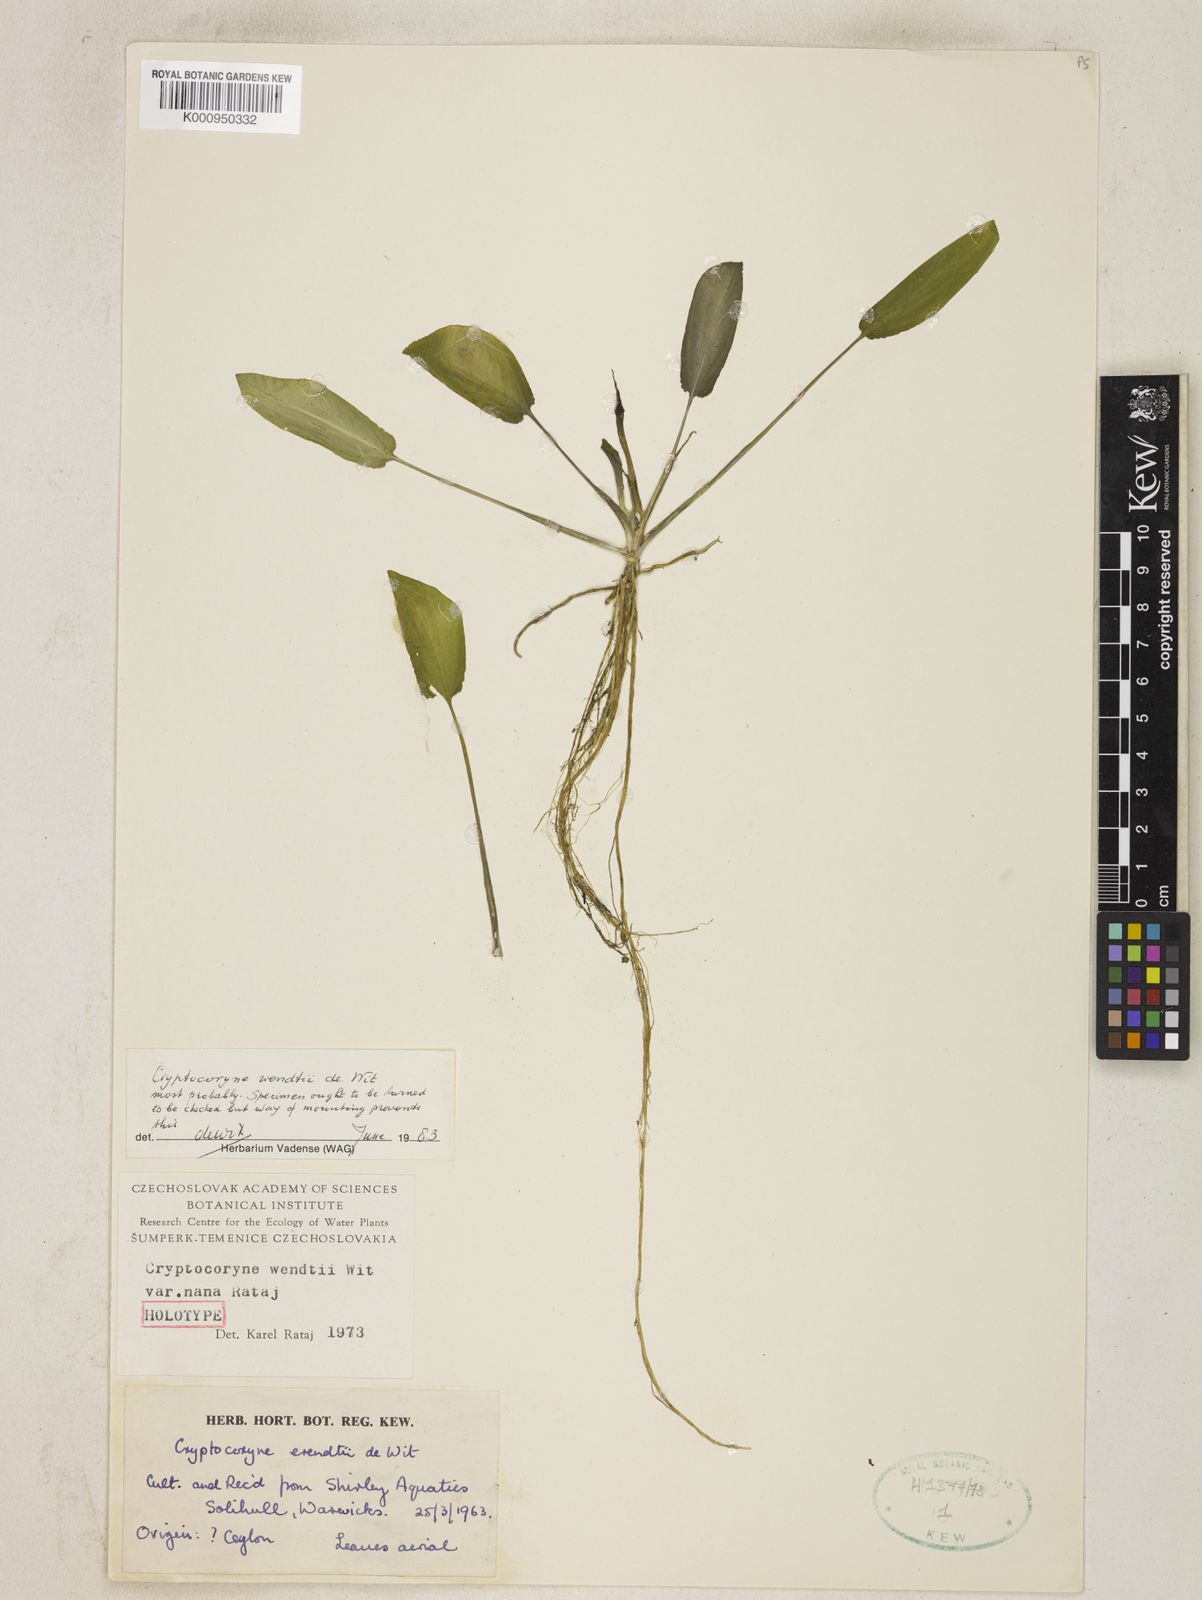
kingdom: Plantae
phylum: Tracheophyta
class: Liliopsida
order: Alismatales
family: Araceae
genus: Cryptocoryne
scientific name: Cryptocoryne wendtii
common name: Wendt's water trumpet
